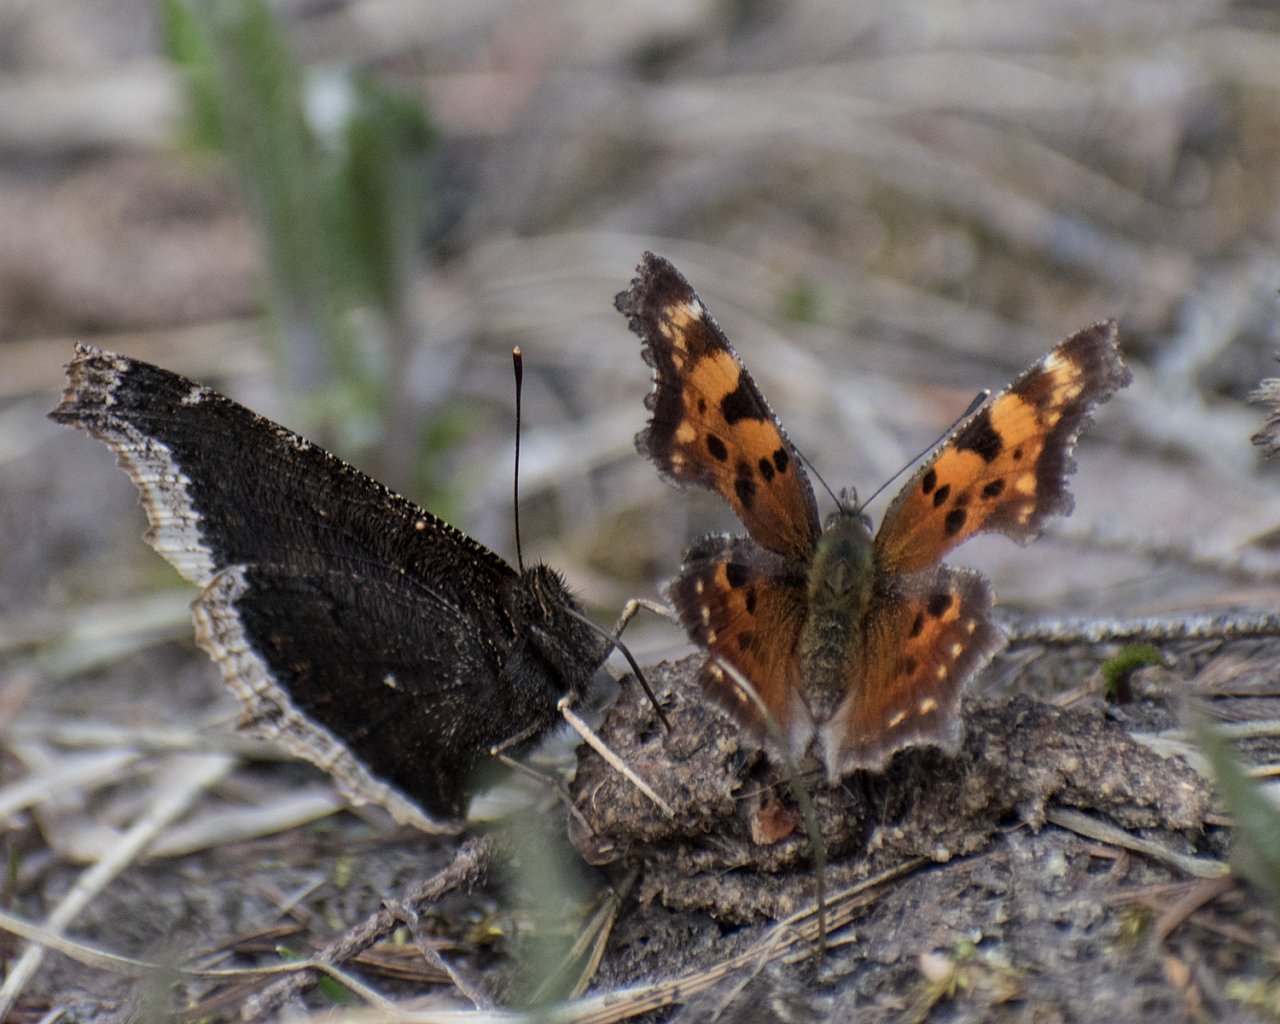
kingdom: Animalia
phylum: Arthropoda
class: Insecta
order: Lepidoptera
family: Nymphalidae
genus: Polygonia
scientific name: Polygonia faunus
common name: Green Comma
